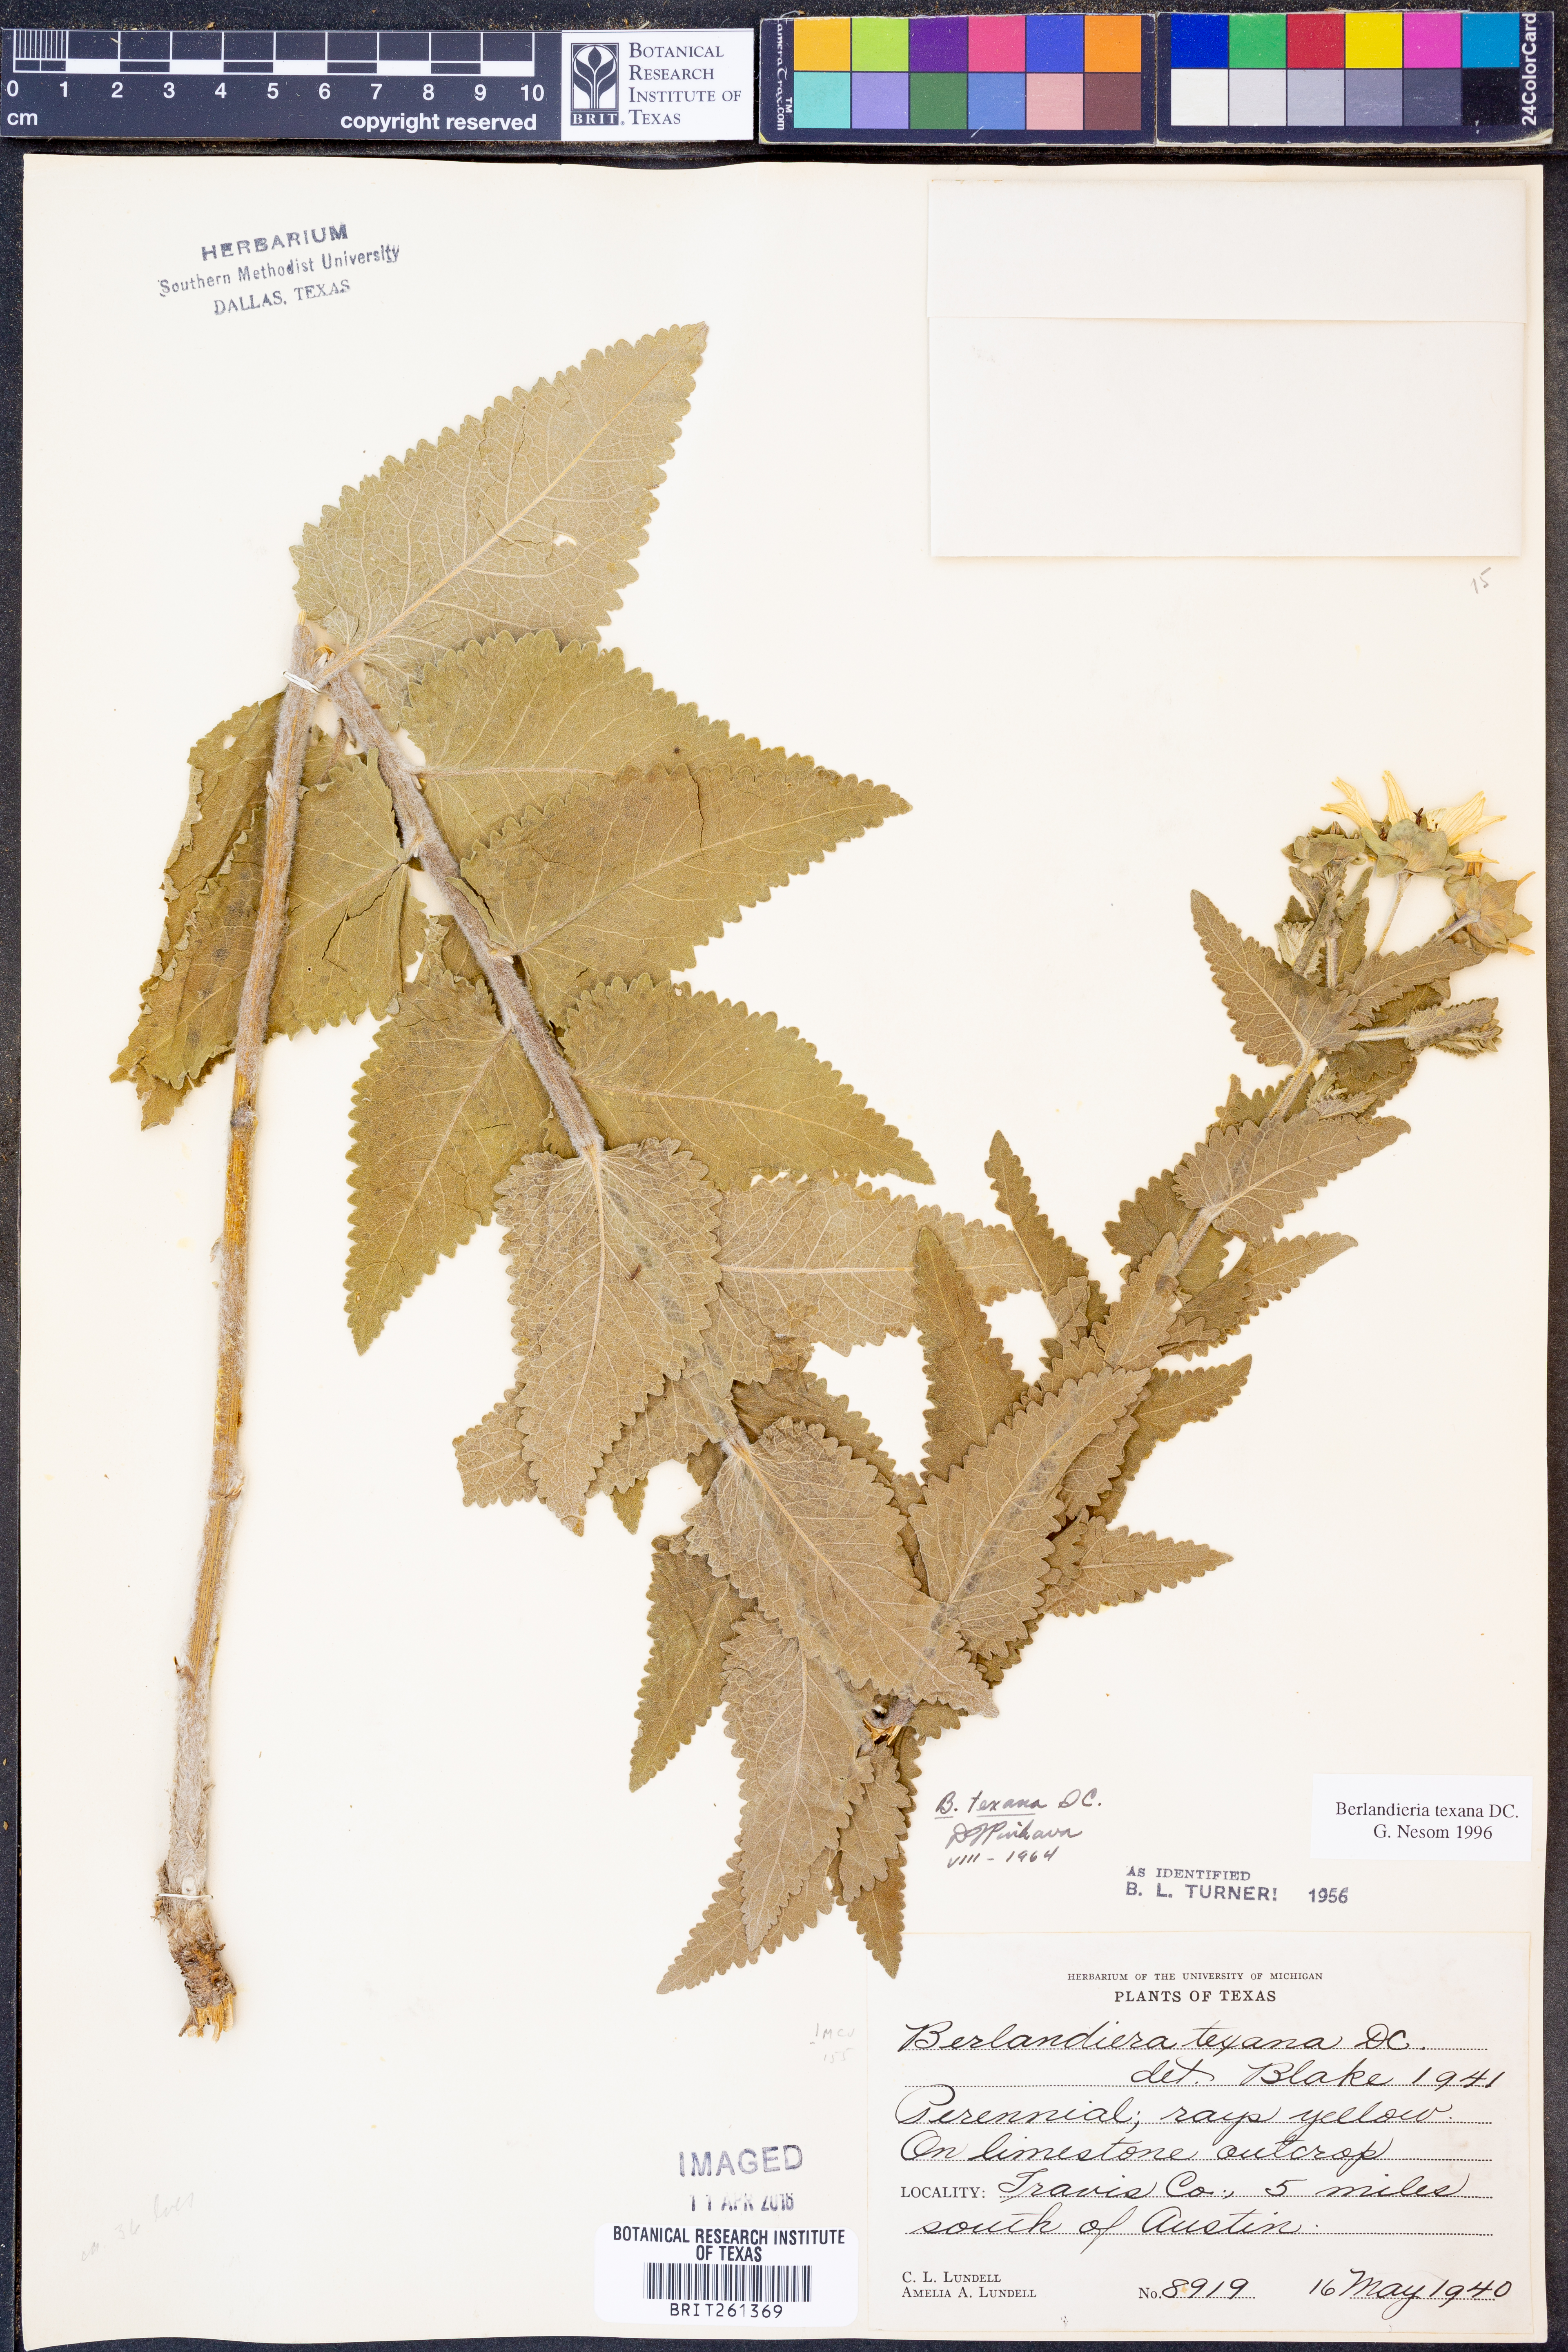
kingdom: Plantae
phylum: Tracheophyta
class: Magnoliopsida
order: Asterales
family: Asteraceae
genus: Berlandiera
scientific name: Berlandiera texana
